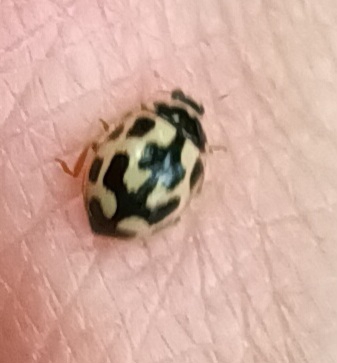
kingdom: Animalia
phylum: Arthropoda
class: Insecta
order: Coleoptera
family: Coccinellidae
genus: Propylaea
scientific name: Propylaea quatuordecimpunctata
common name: Skakbræt
